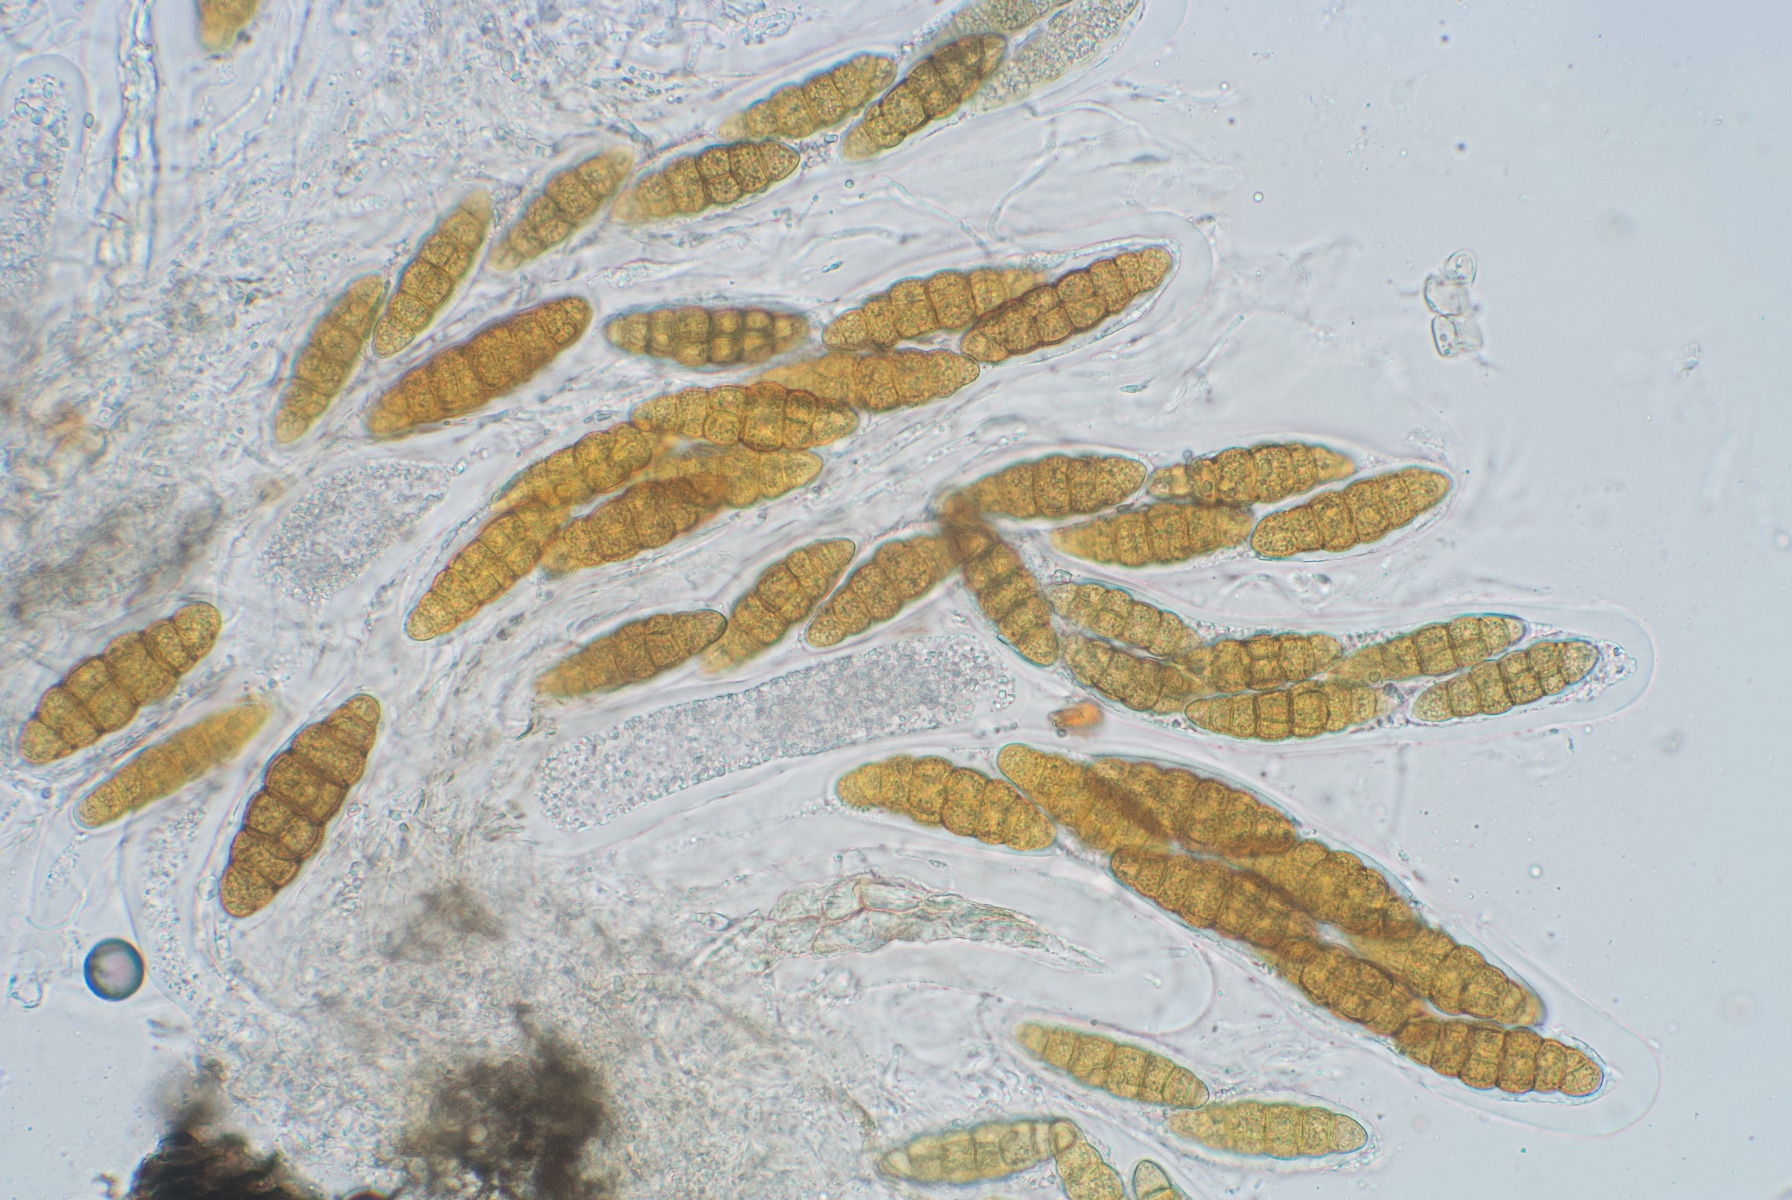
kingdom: Fungi
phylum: Ascomycota
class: Dothideomycetes
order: Pleosporales
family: Pleomassariaceae
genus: Pleomassaria
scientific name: Pleomassaria siparia
